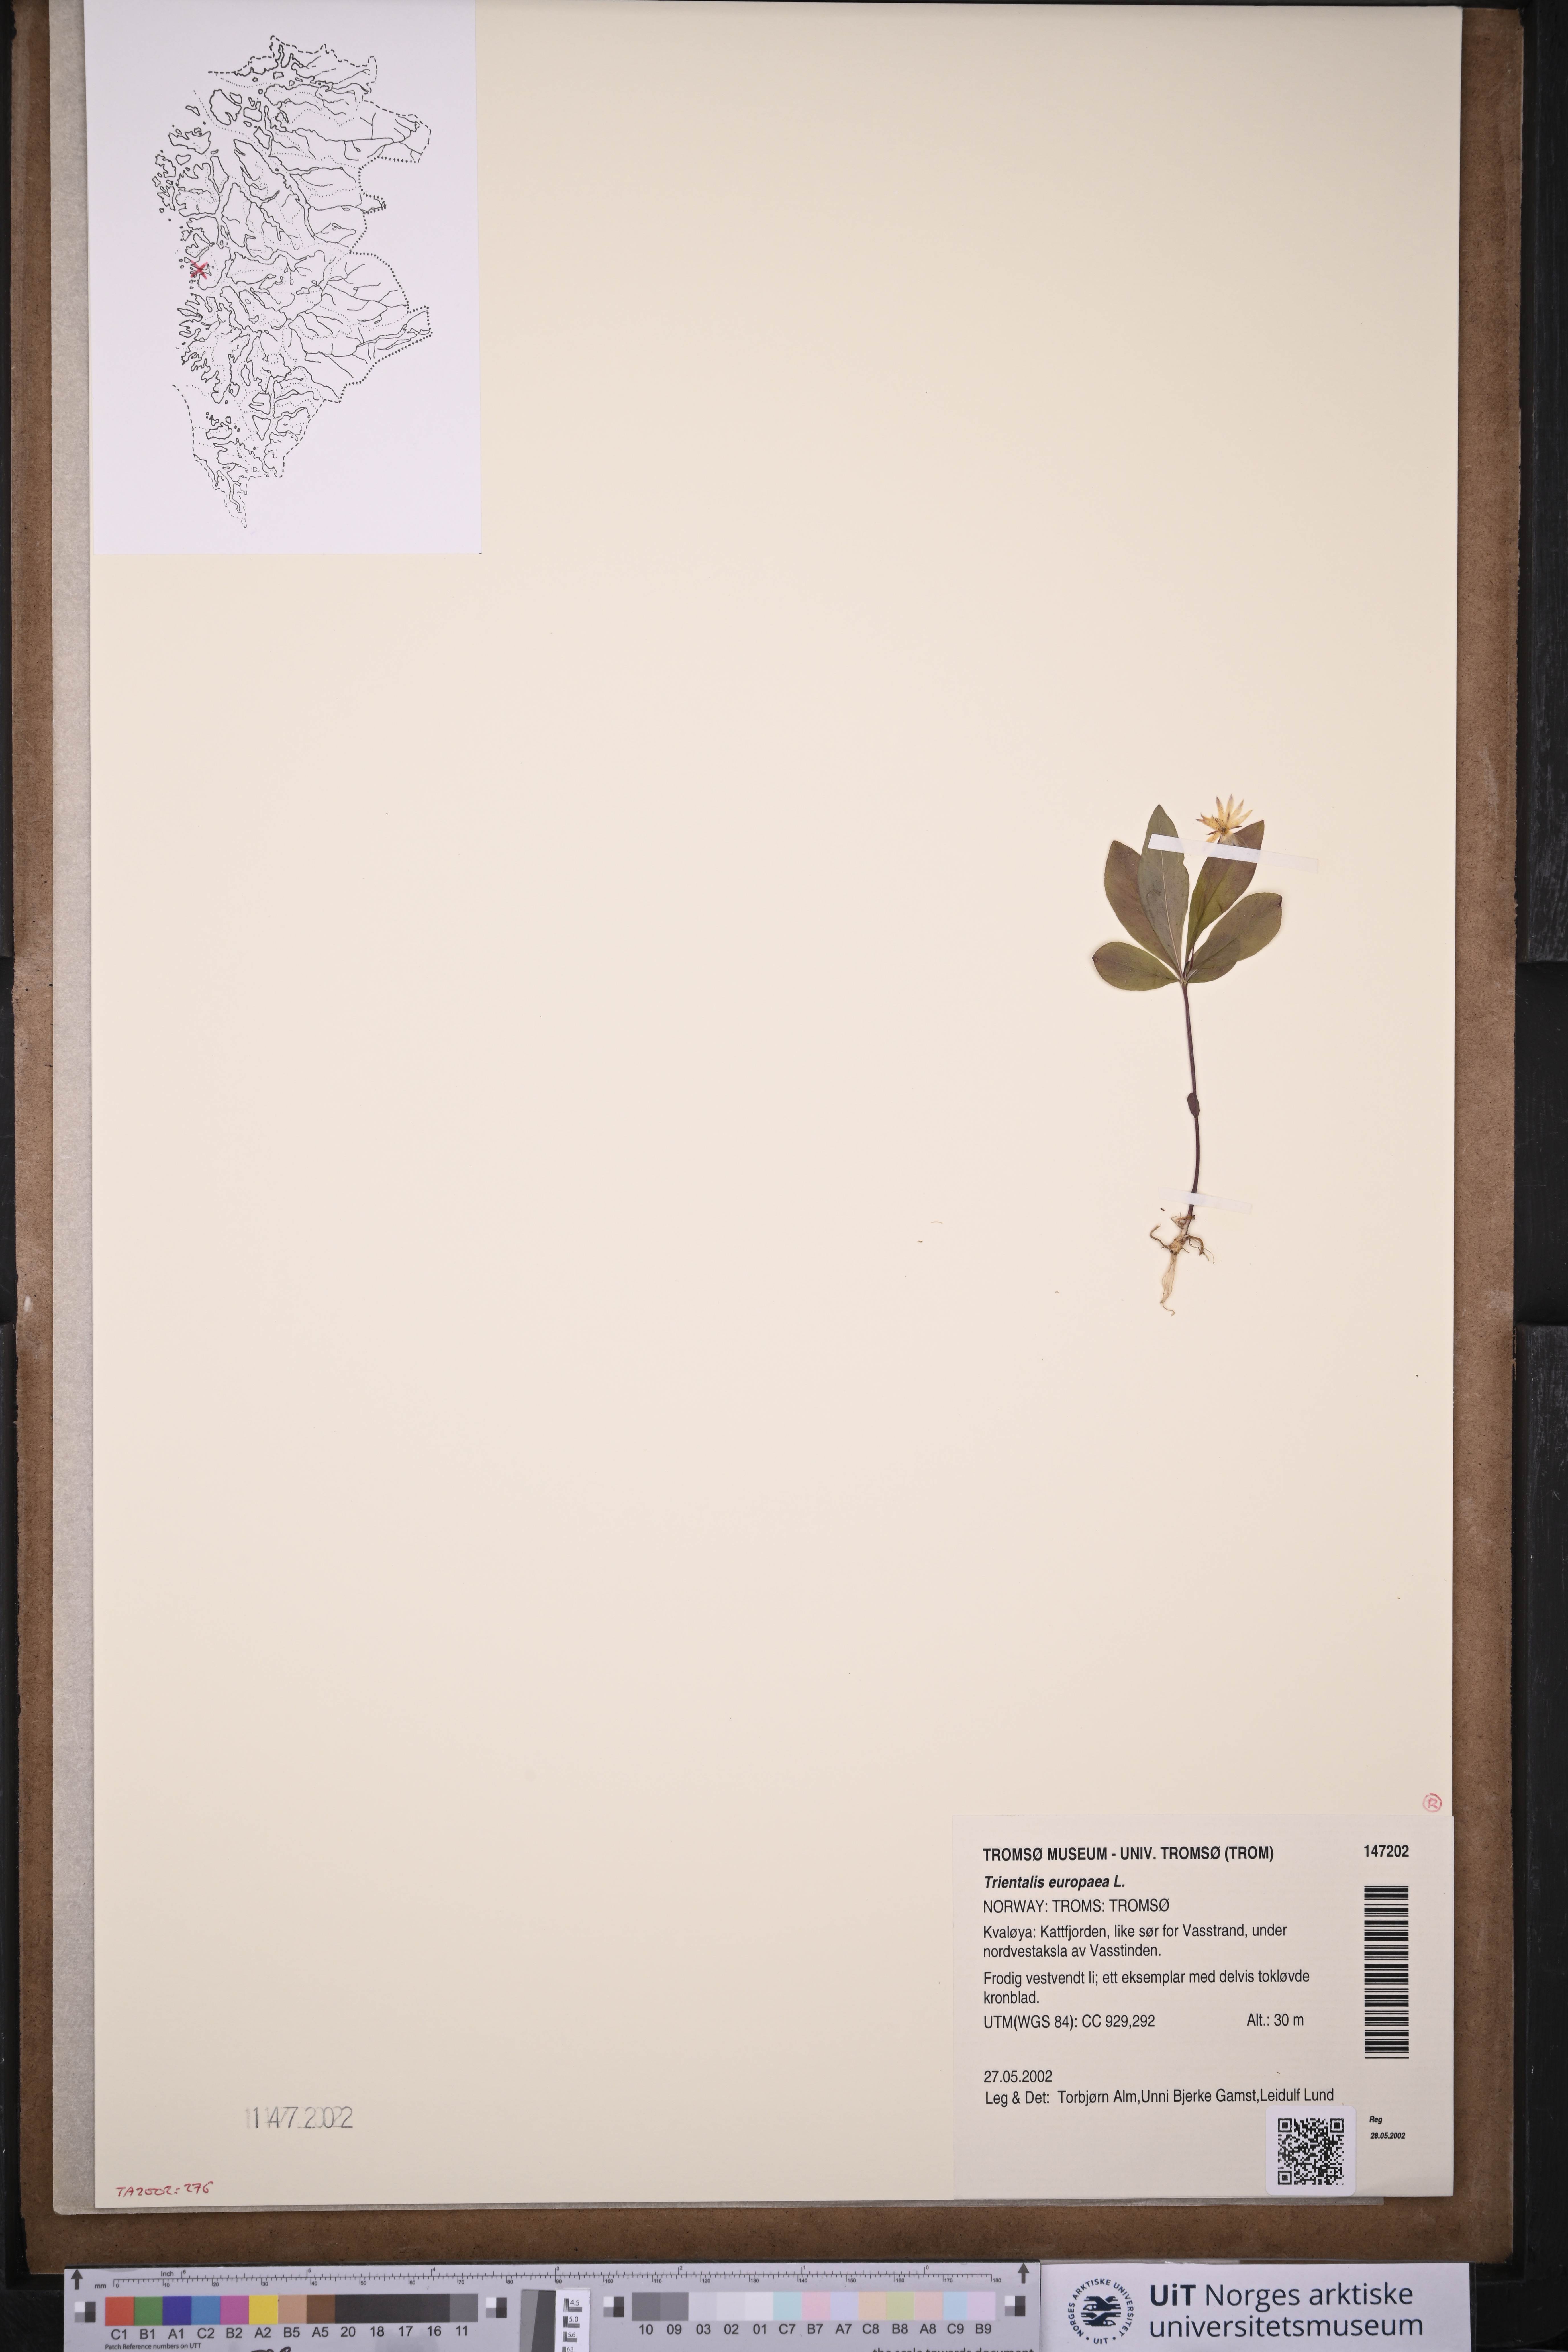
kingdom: Plantae
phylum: Tracheophyta
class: Magnoliopsida
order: Ericales
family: Primulaceae
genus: Lysimachia
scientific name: Lysimachia europaea
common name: Arctic starflower
